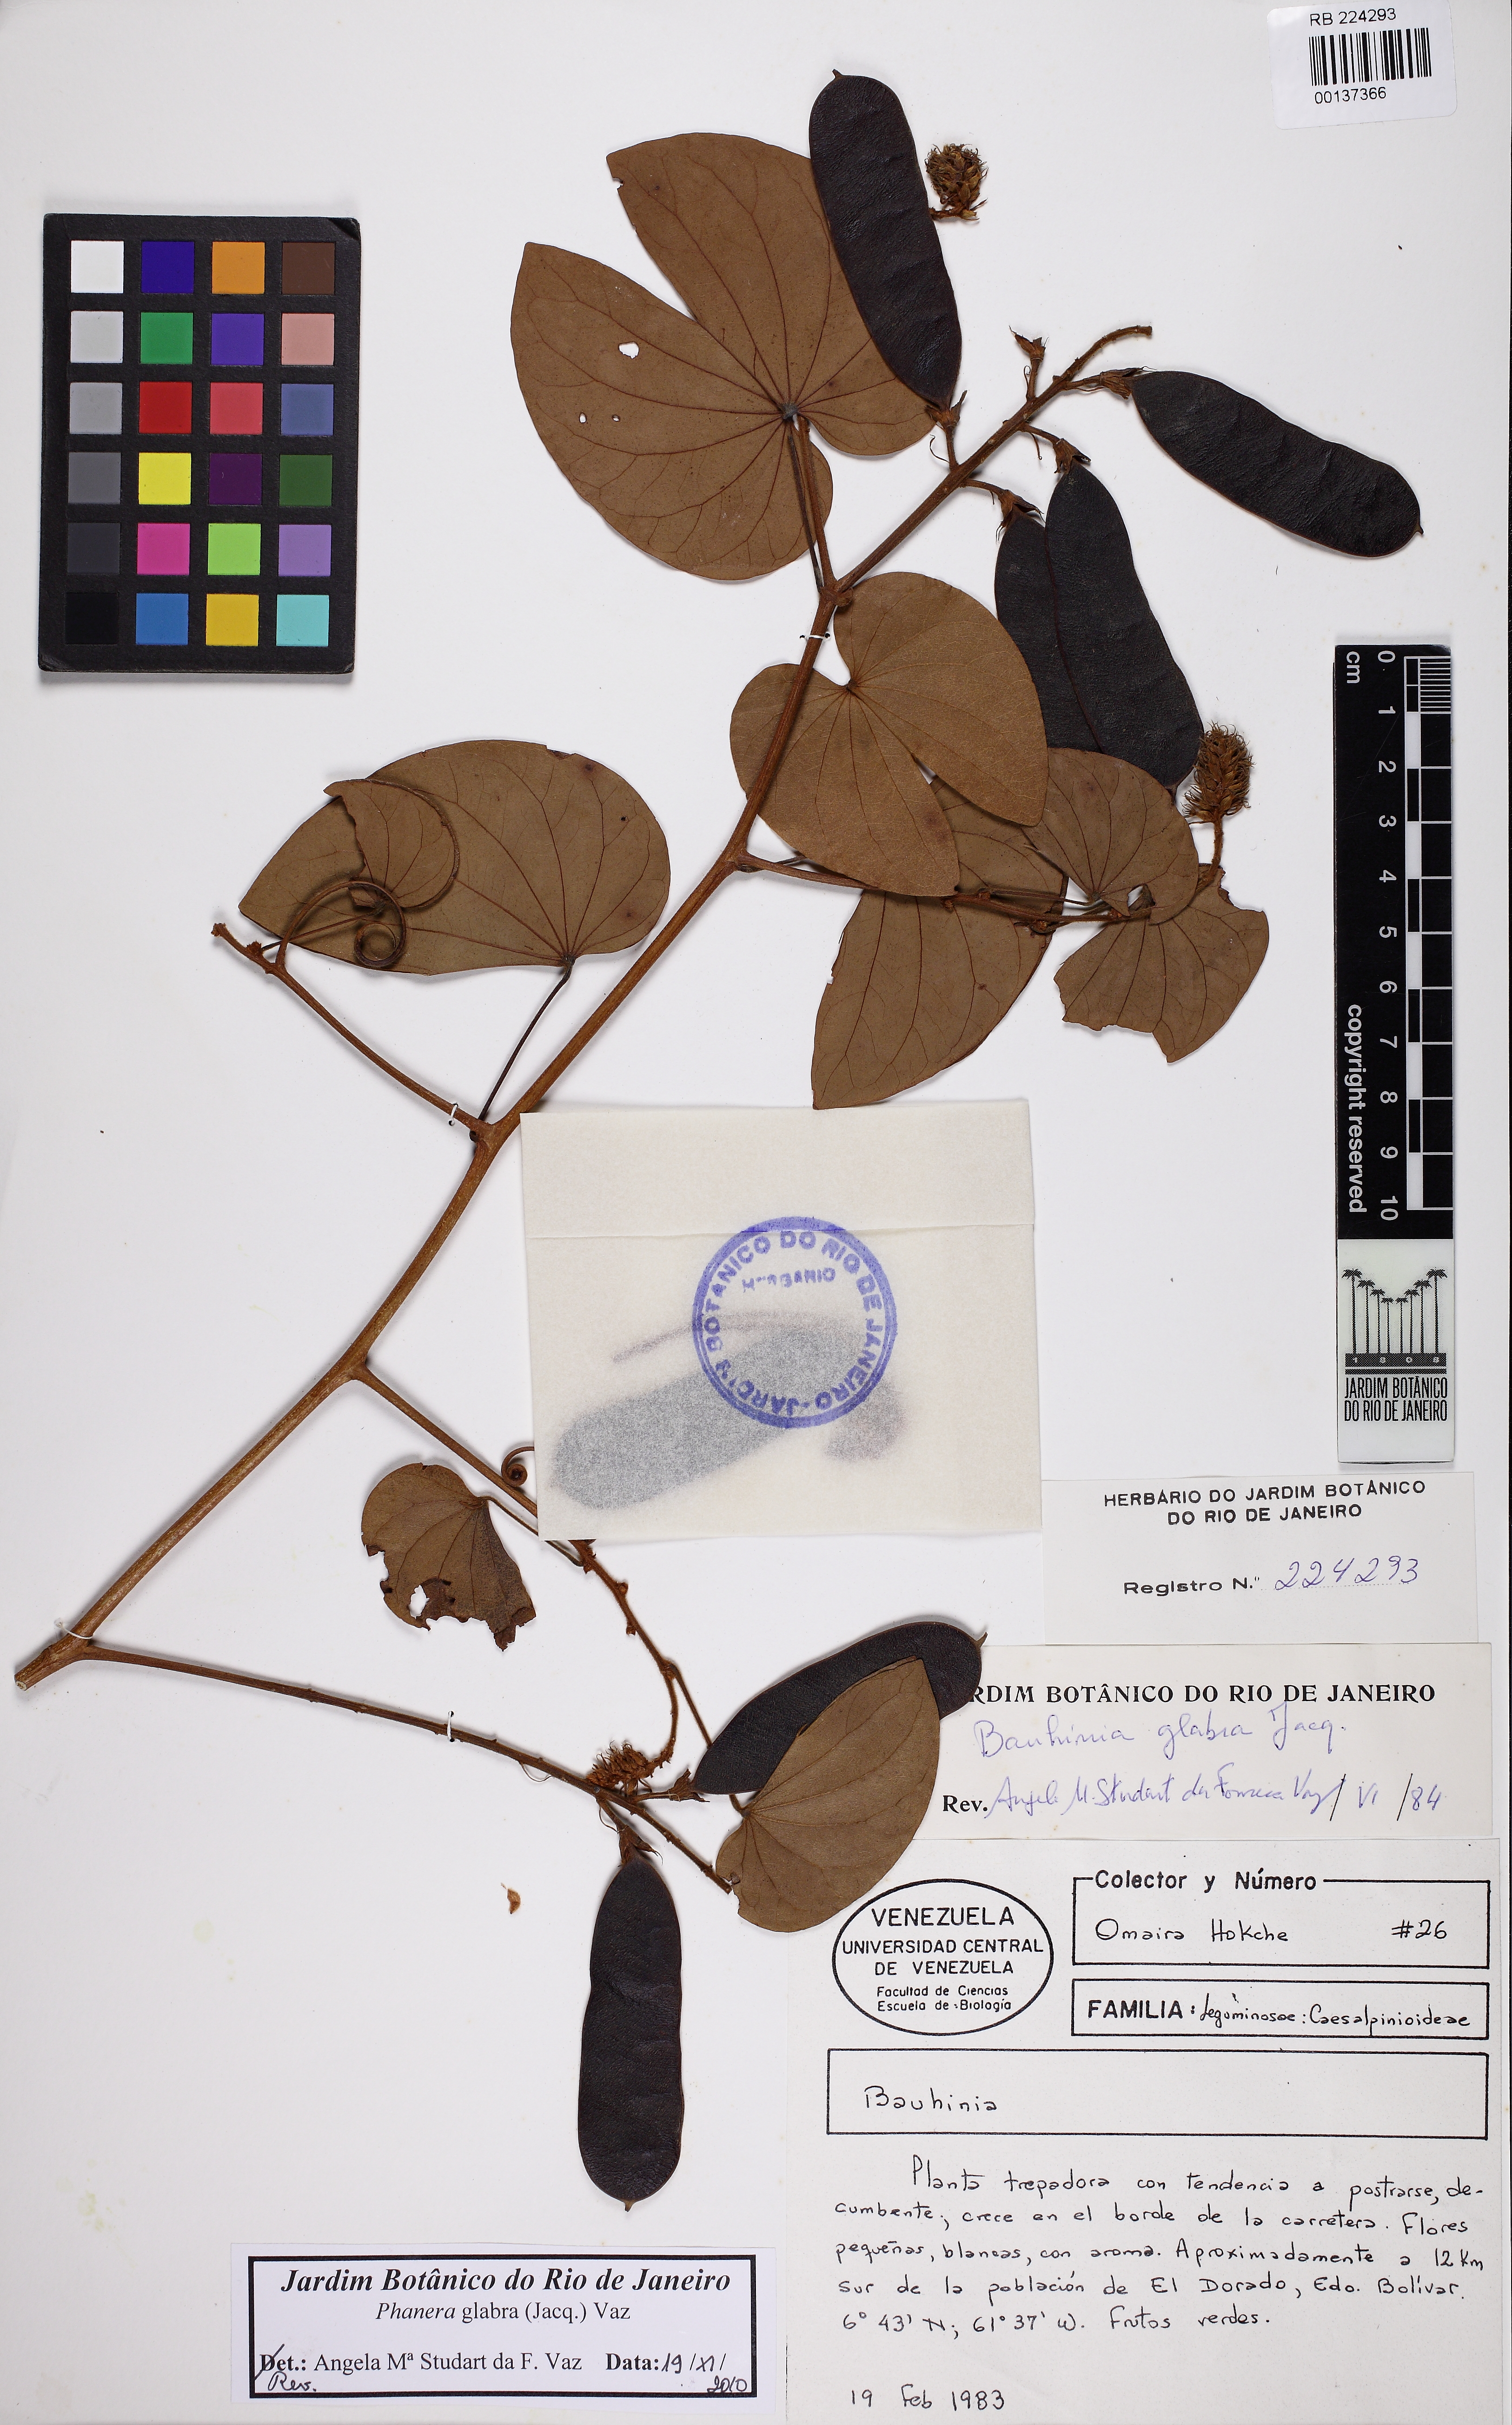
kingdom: Plantae
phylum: Tracheophyta
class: Magnoliopsida
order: Fabales
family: Fabaceae
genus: Schnella
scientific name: Schnella glabra
